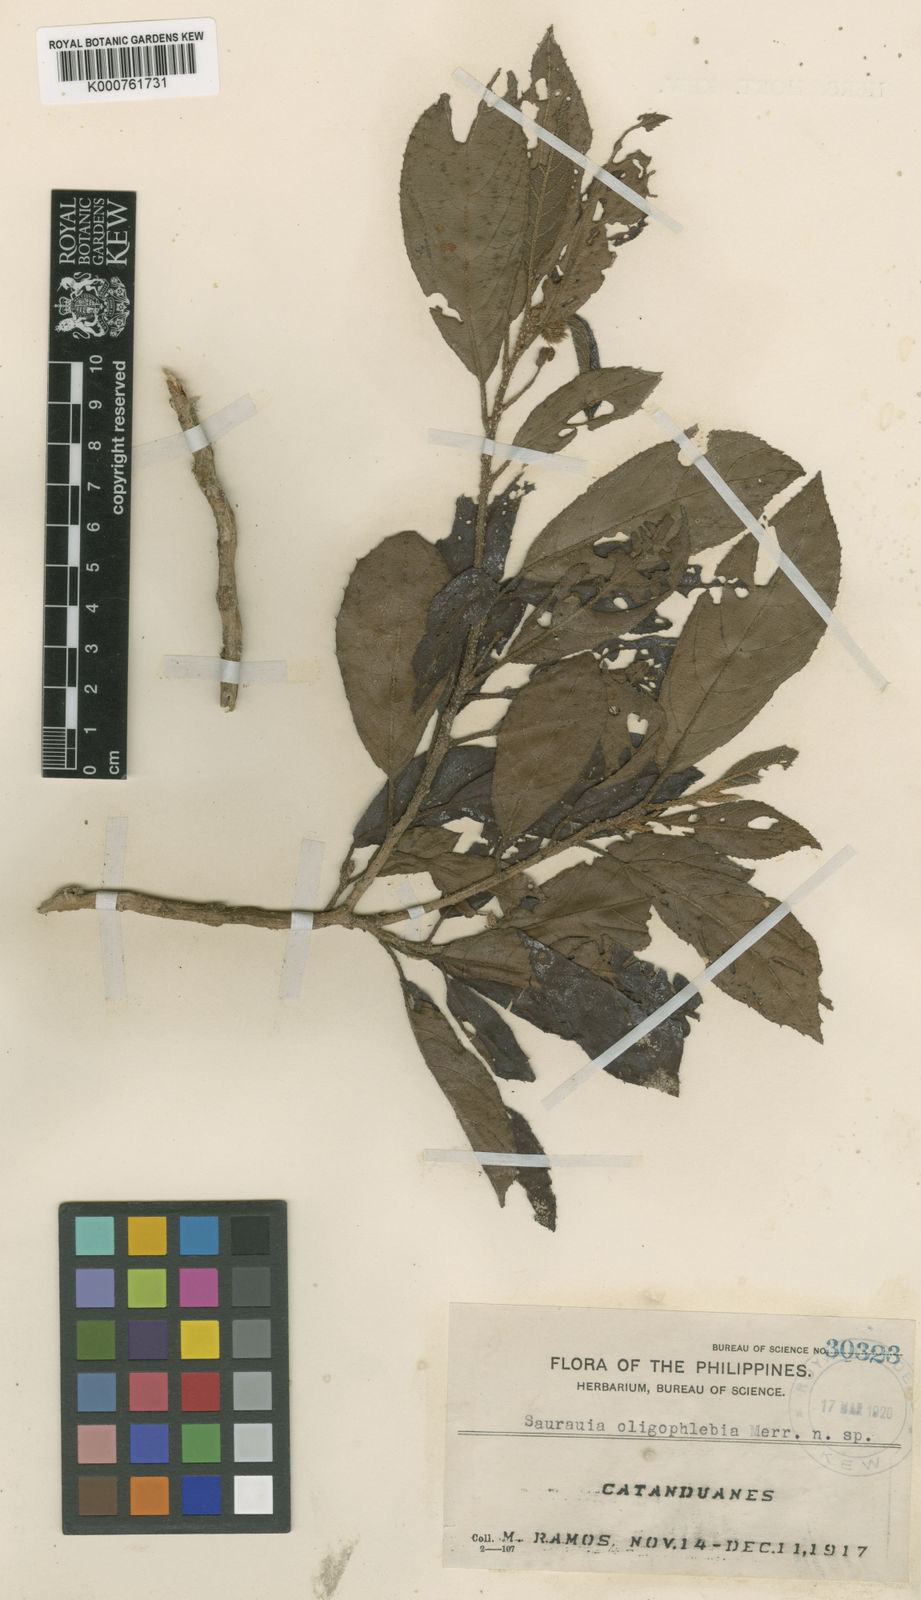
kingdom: Plantae
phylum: Tracheophyta
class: Magnoliopsida
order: Ericales
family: Actinidiaceae
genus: Saurauia
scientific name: Saurauia oligophlebia
